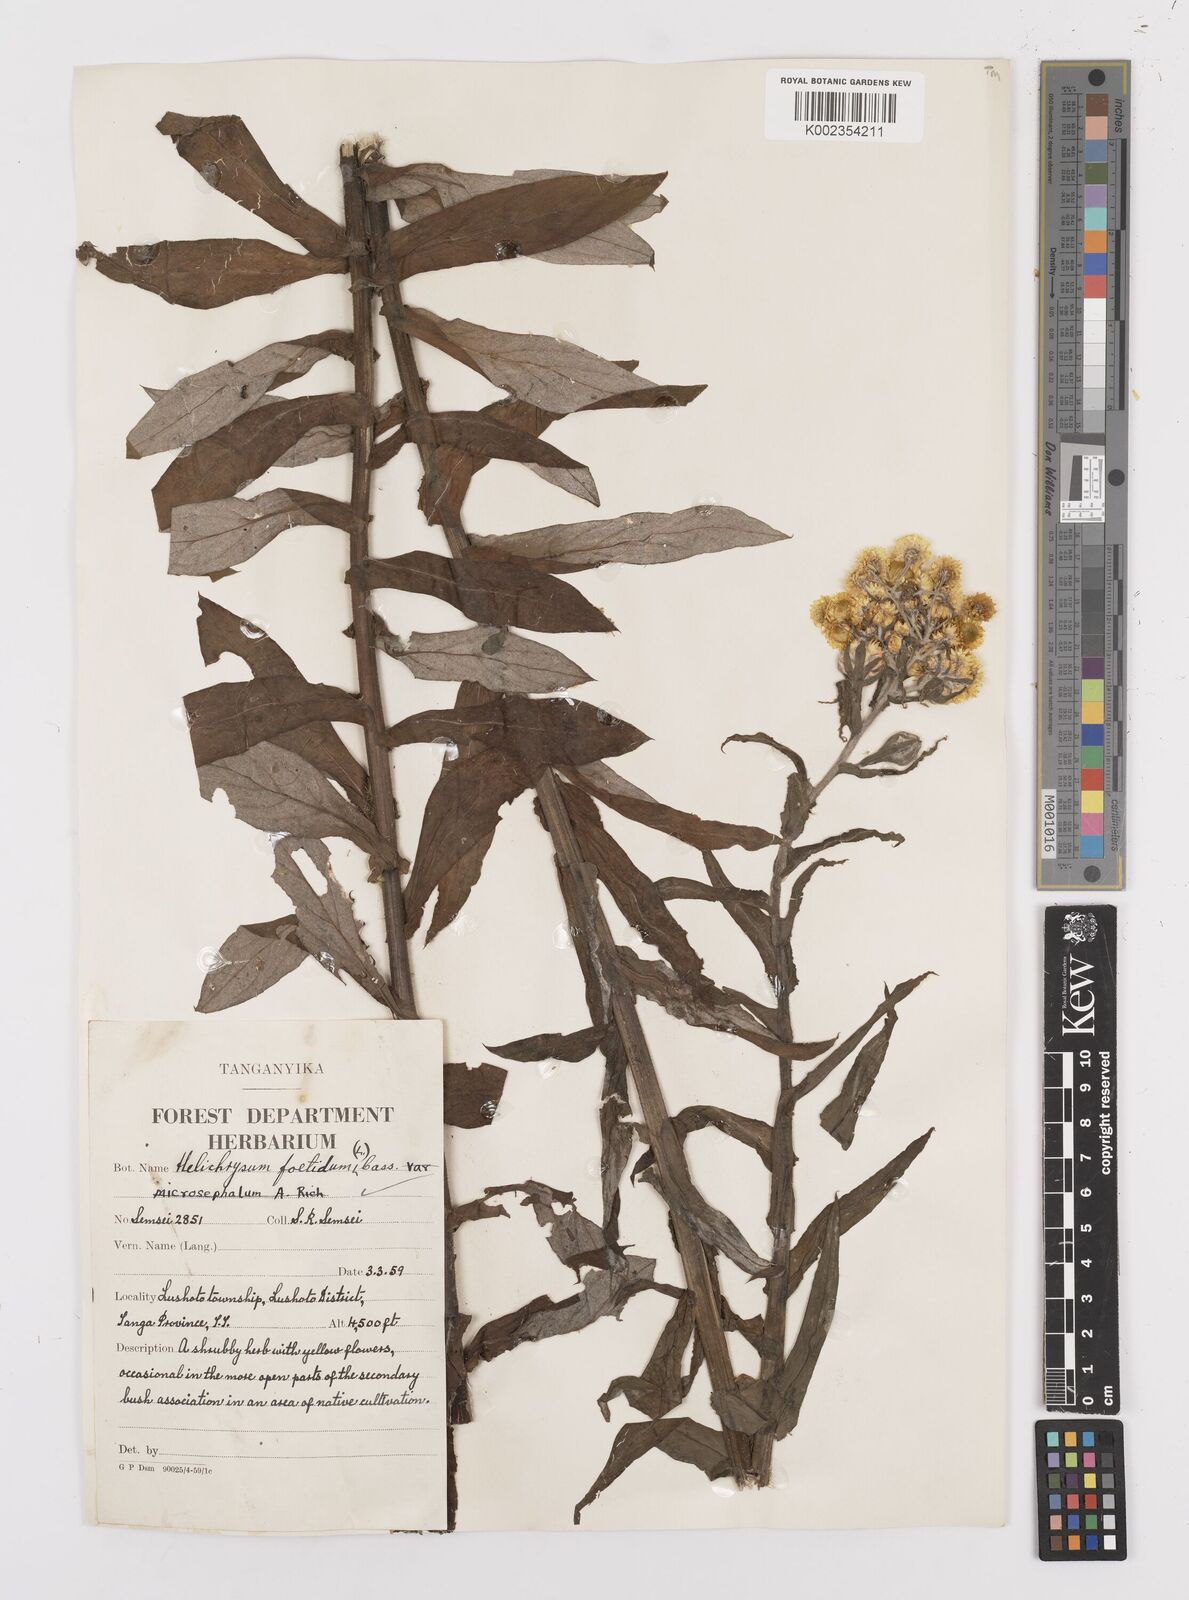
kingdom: Plantae
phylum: Tracheophyta
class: Magnoliopsida
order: Asterales
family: Asteraceae
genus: Helichrysum
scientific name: Helichrysum
